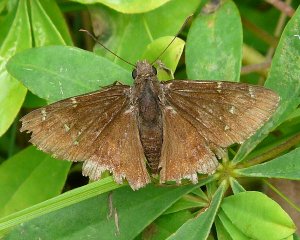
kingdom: Animalia
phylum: Arthropoda
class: Insecta
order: Lepidoptera
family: Hesperiidae
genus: Autochton
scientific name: Autochton
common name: Northern Cloudywing
